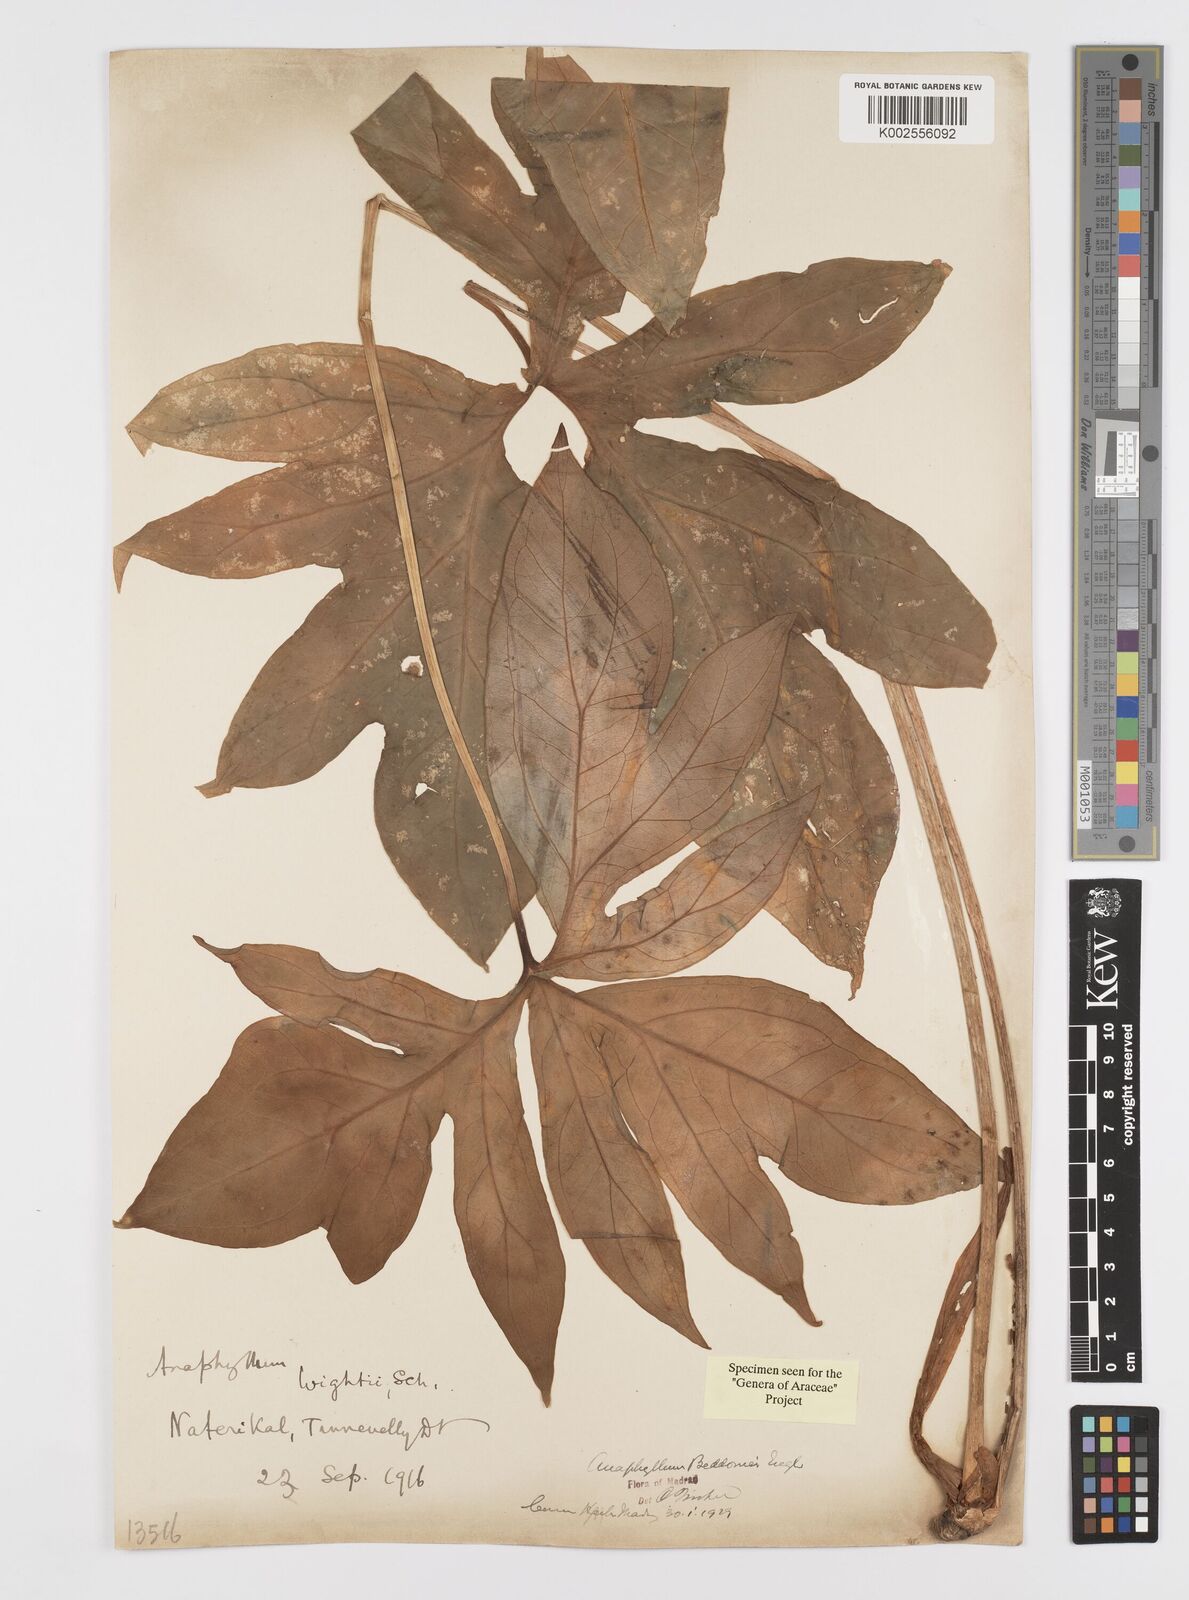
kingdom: Plantae
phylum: Tracheophyta
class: Liliopsida
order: Alismatales
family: Araceae
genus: Anaphyllum
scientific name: Anaphyllum beddomei
